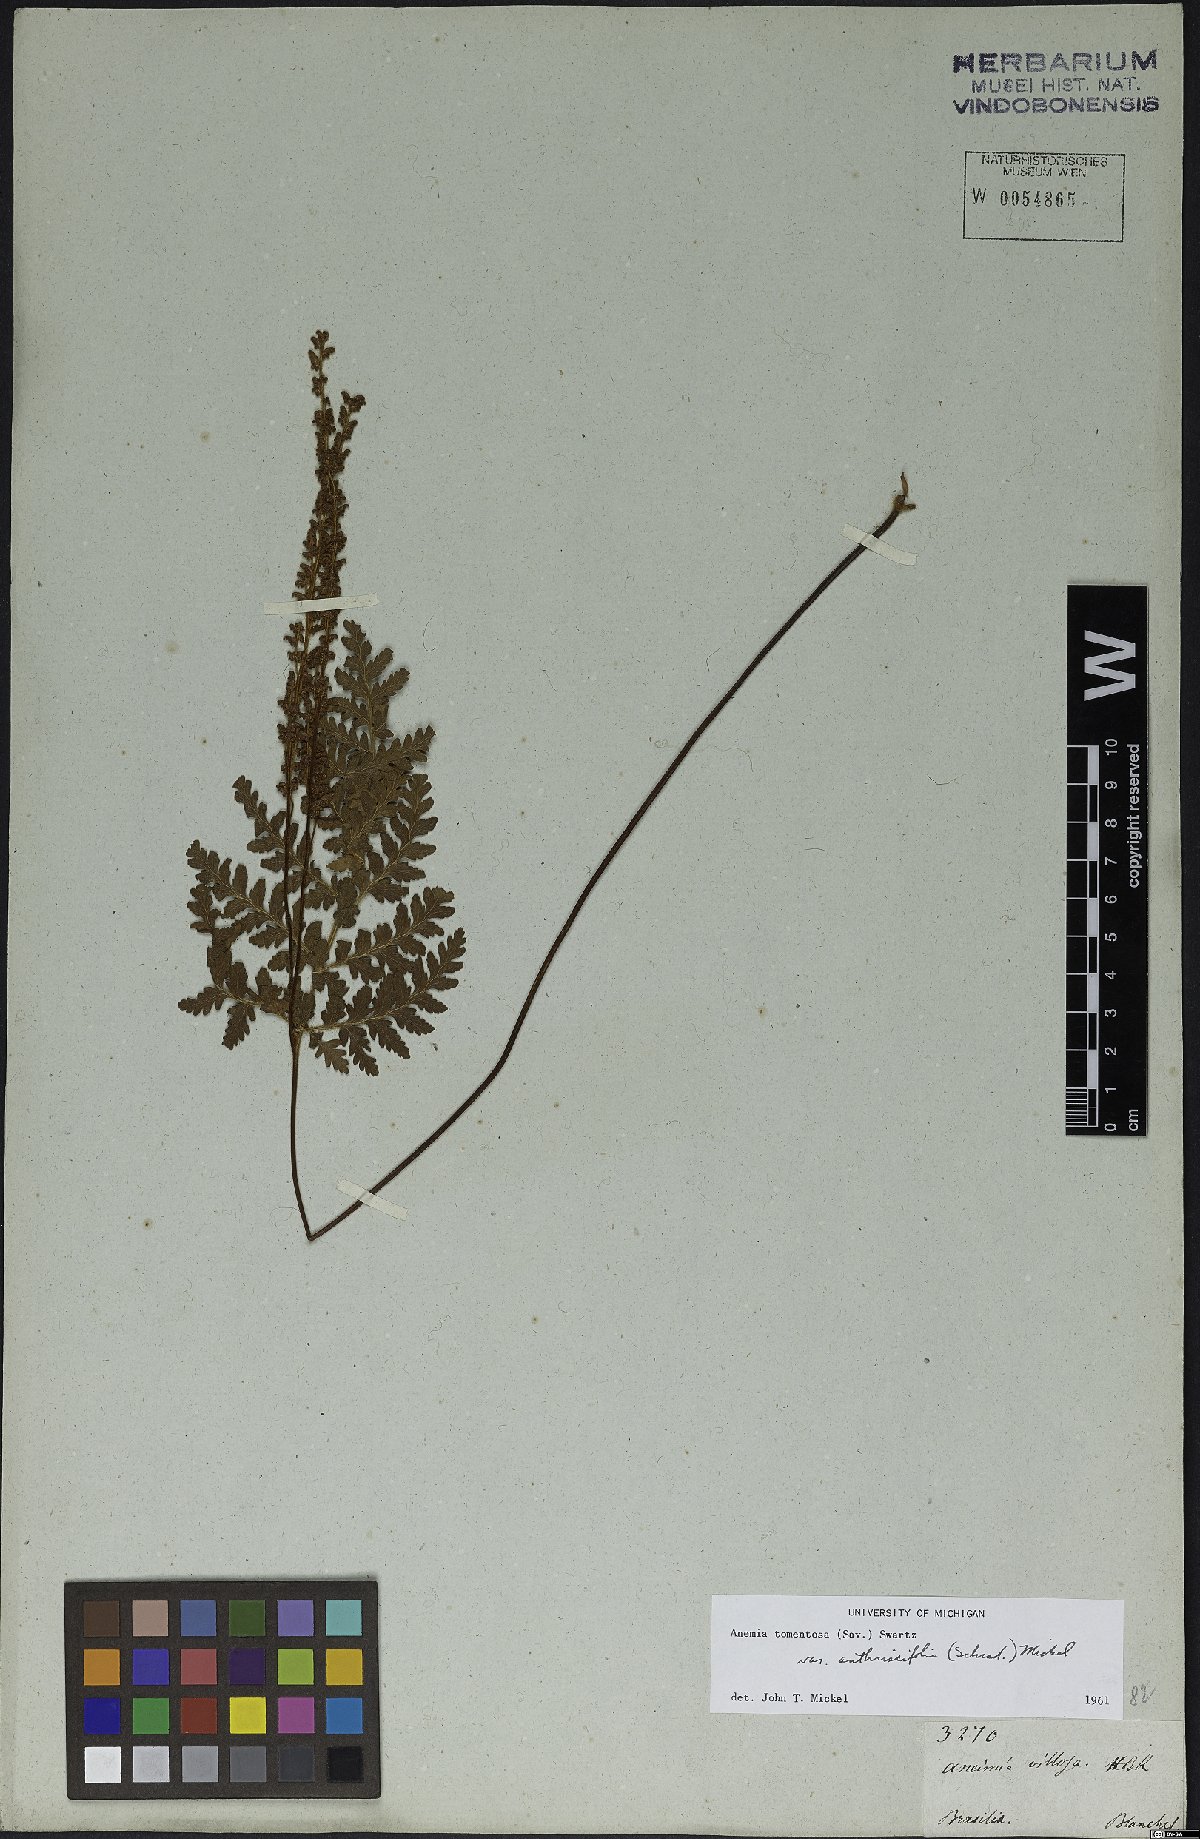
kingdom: Plantae
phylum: Tracheophyta
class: Polypodiopsida
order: Schizaeales
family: Anemiaceae
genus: Anemia
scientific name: Anemia tomentosa
